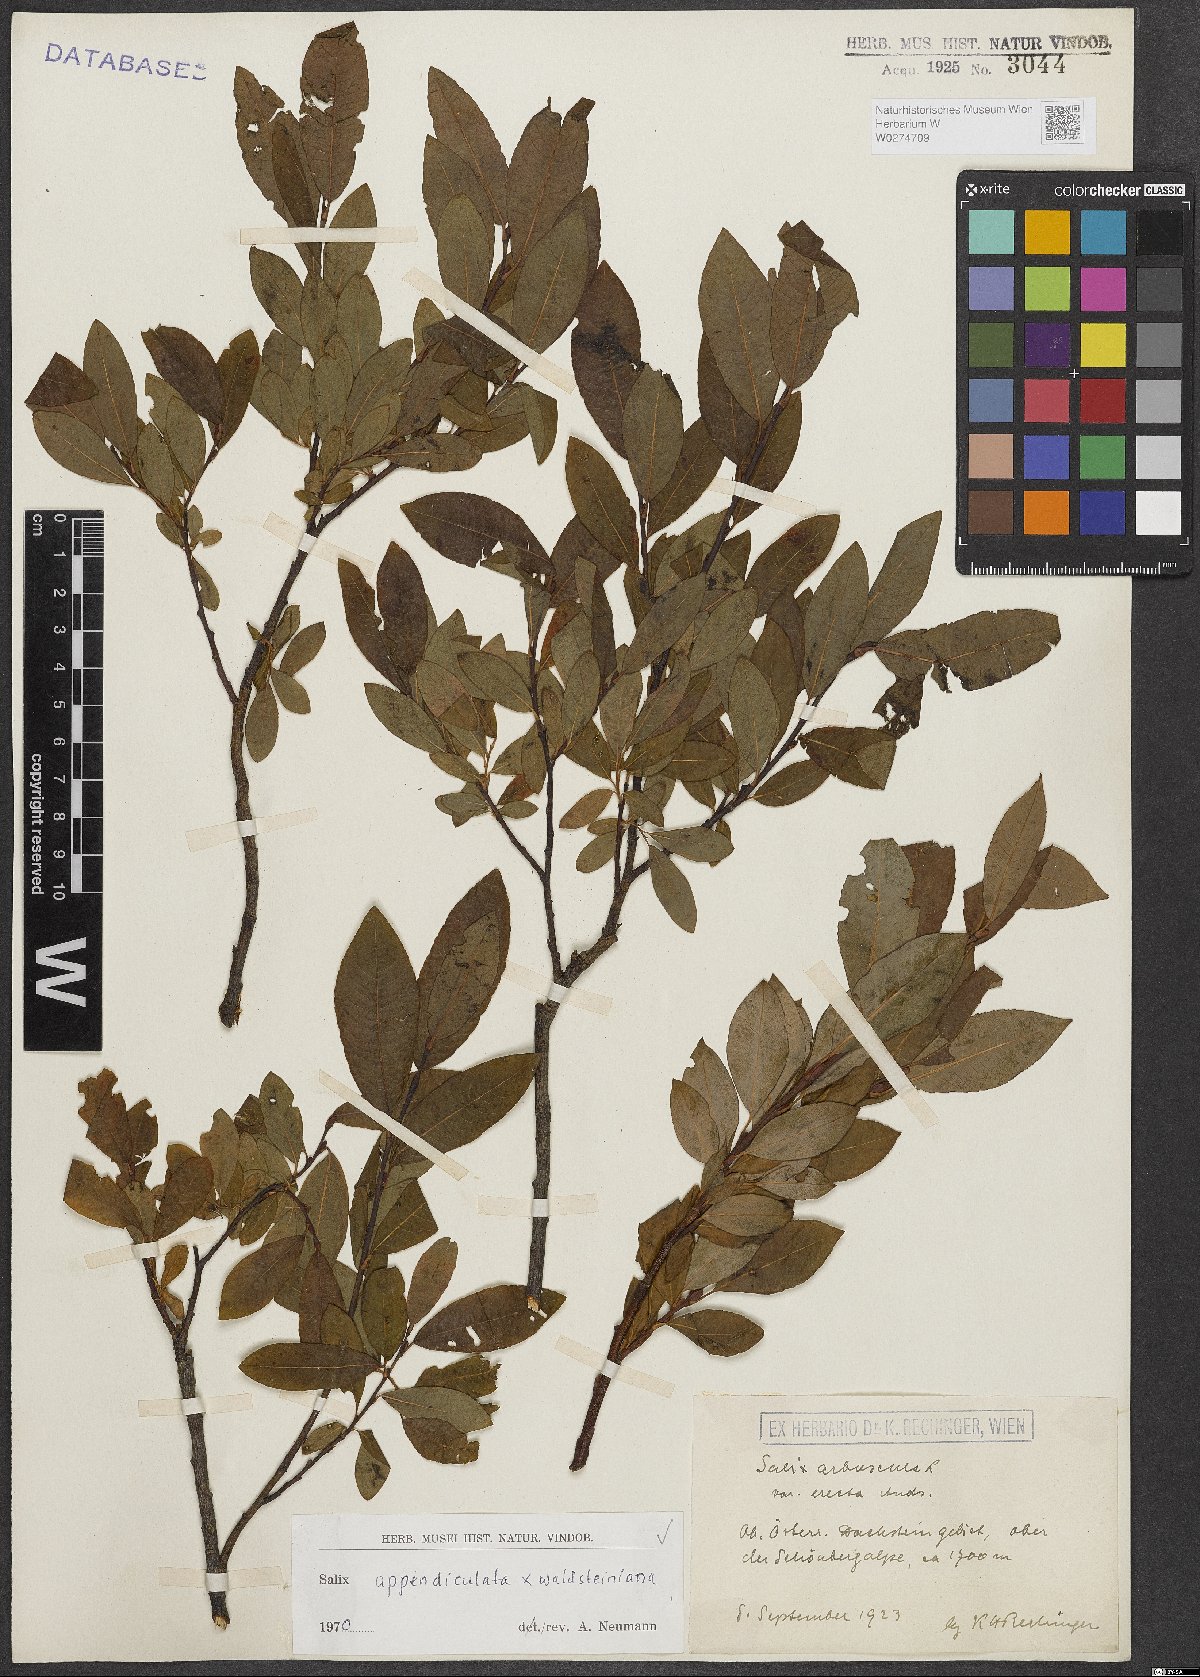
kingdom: Plantae
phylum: Tracheophyta
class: Magnoliopsida
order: Malpighiales
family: Salicaceae
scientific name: Salicaceae
